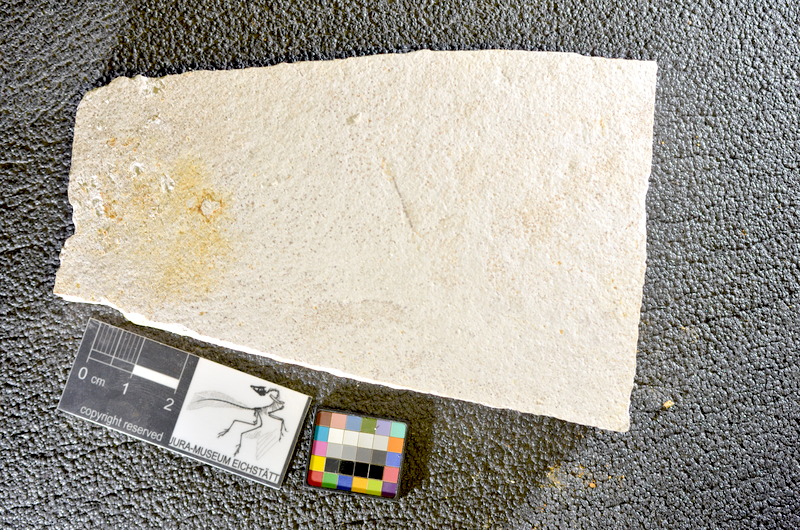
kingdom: Animalia
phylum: Chordata
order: Salmoniformes
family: Orthogonikleithridae
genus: Orthogonikleithrus
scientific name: Orthogonikleithrus hoelli
